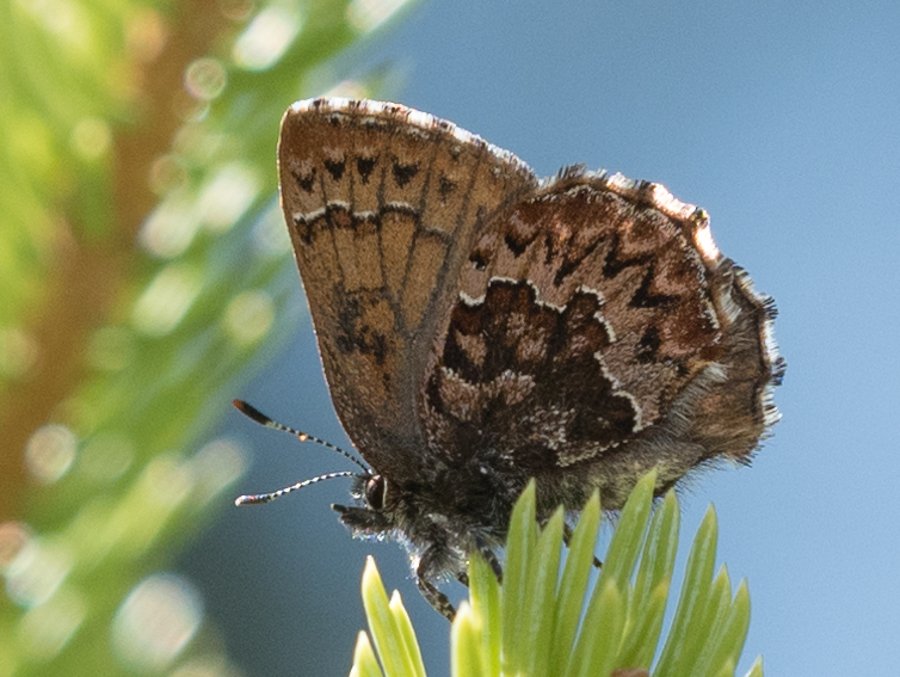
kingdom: Animalia
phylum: Arthropoda
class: Insecta
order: Lepidoptera
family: Lycaenidae
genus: Incisalia
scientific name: Incisalia eryphon
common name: Western Pine Elfin
